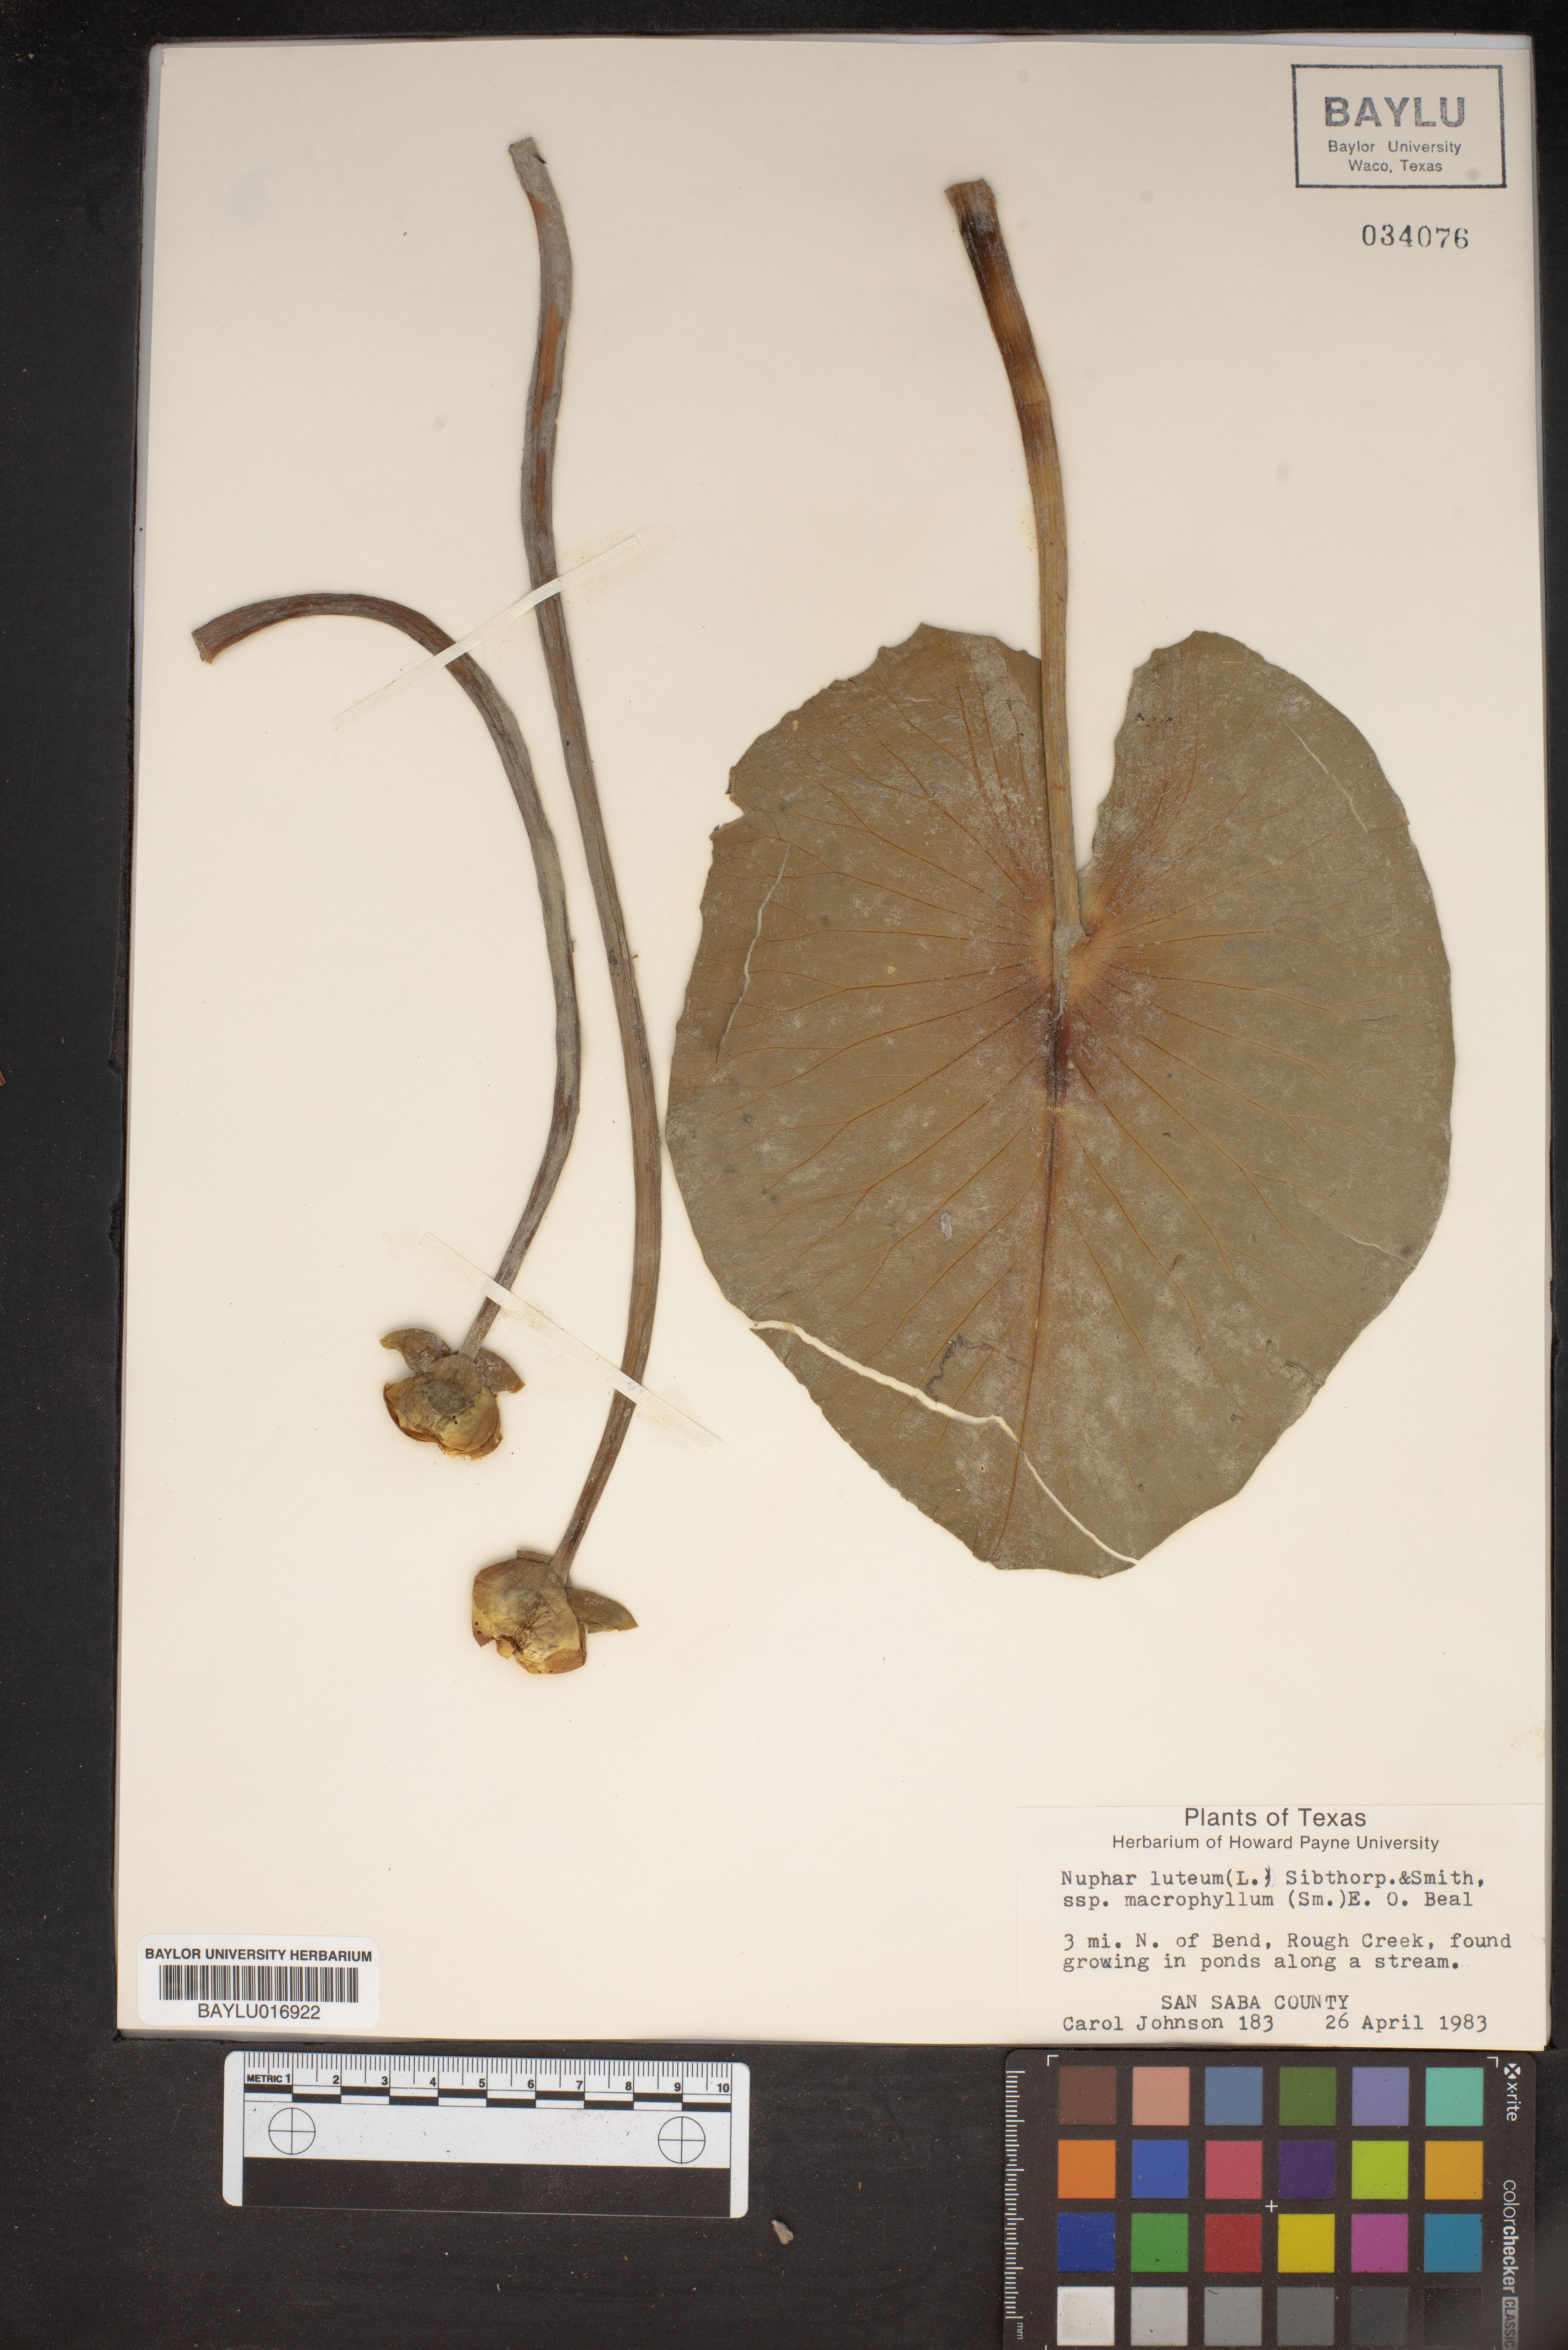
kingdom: Plantae
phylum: Tracheophyta
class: Magnoliopsida
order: Nymphaeales
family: Nymphaeaceae
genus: Nuphar
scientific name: Nuphar advena
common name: Spatter-dock
